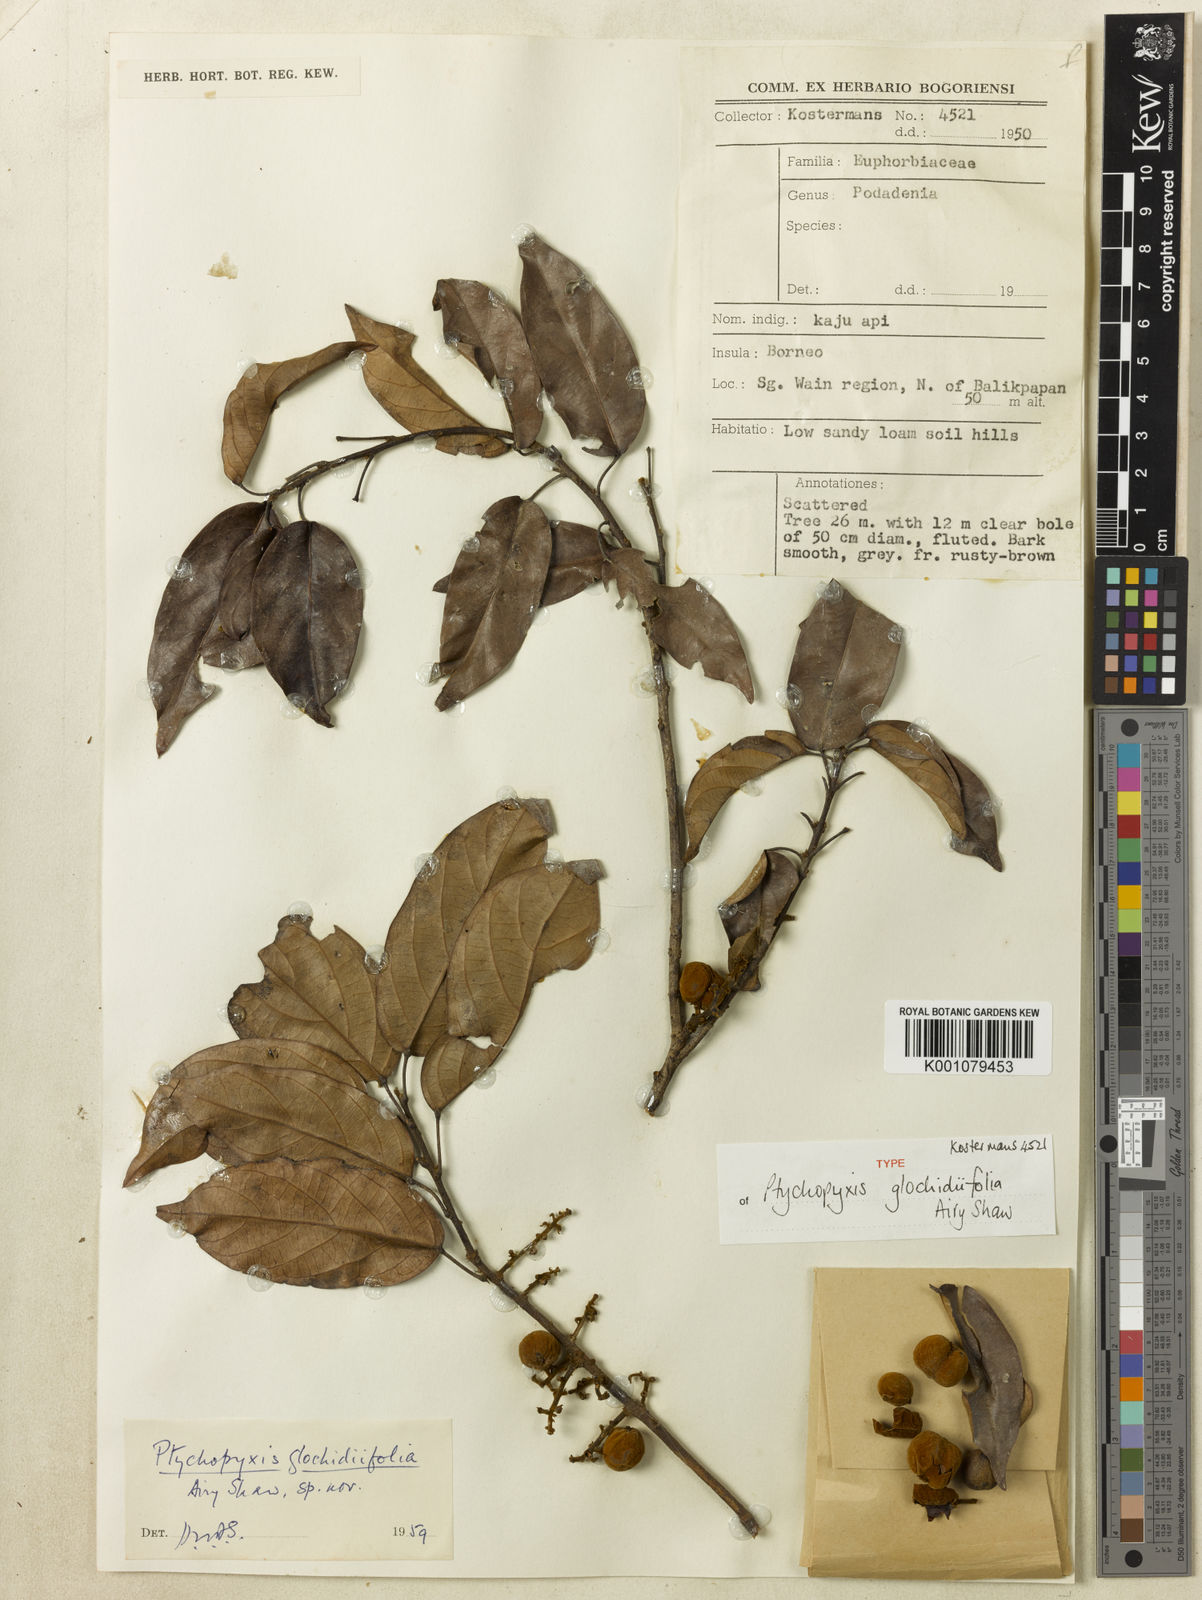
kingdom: Plantae
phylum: Tracheophyta
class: Magnoliopsida
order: Malpighiales
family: Euphorbiaceae
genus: Ptychopyxis
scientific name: Ptychopyxis glochidiifolia
